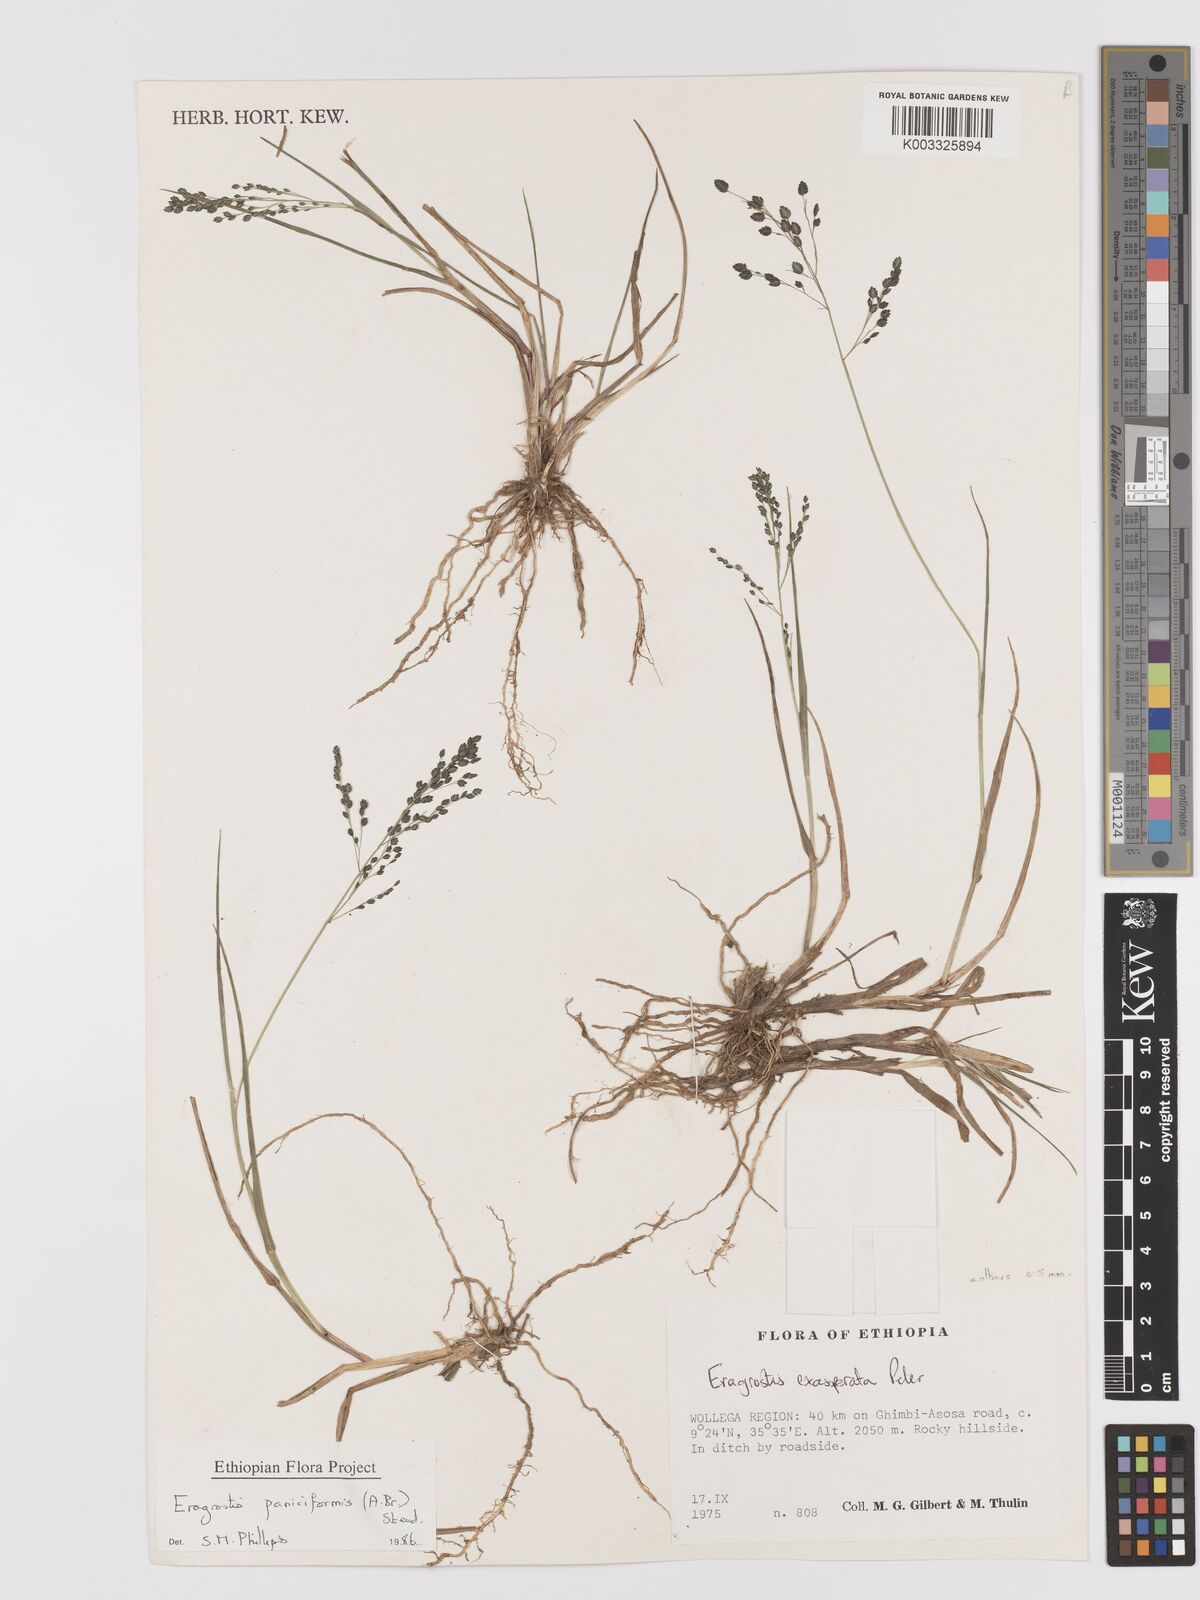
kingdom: Plantae
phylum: Tracheophyta
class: Liliopsida
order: Poales
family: Poaceae
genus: Eragrostis
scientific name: Eragrostis paniciformis
